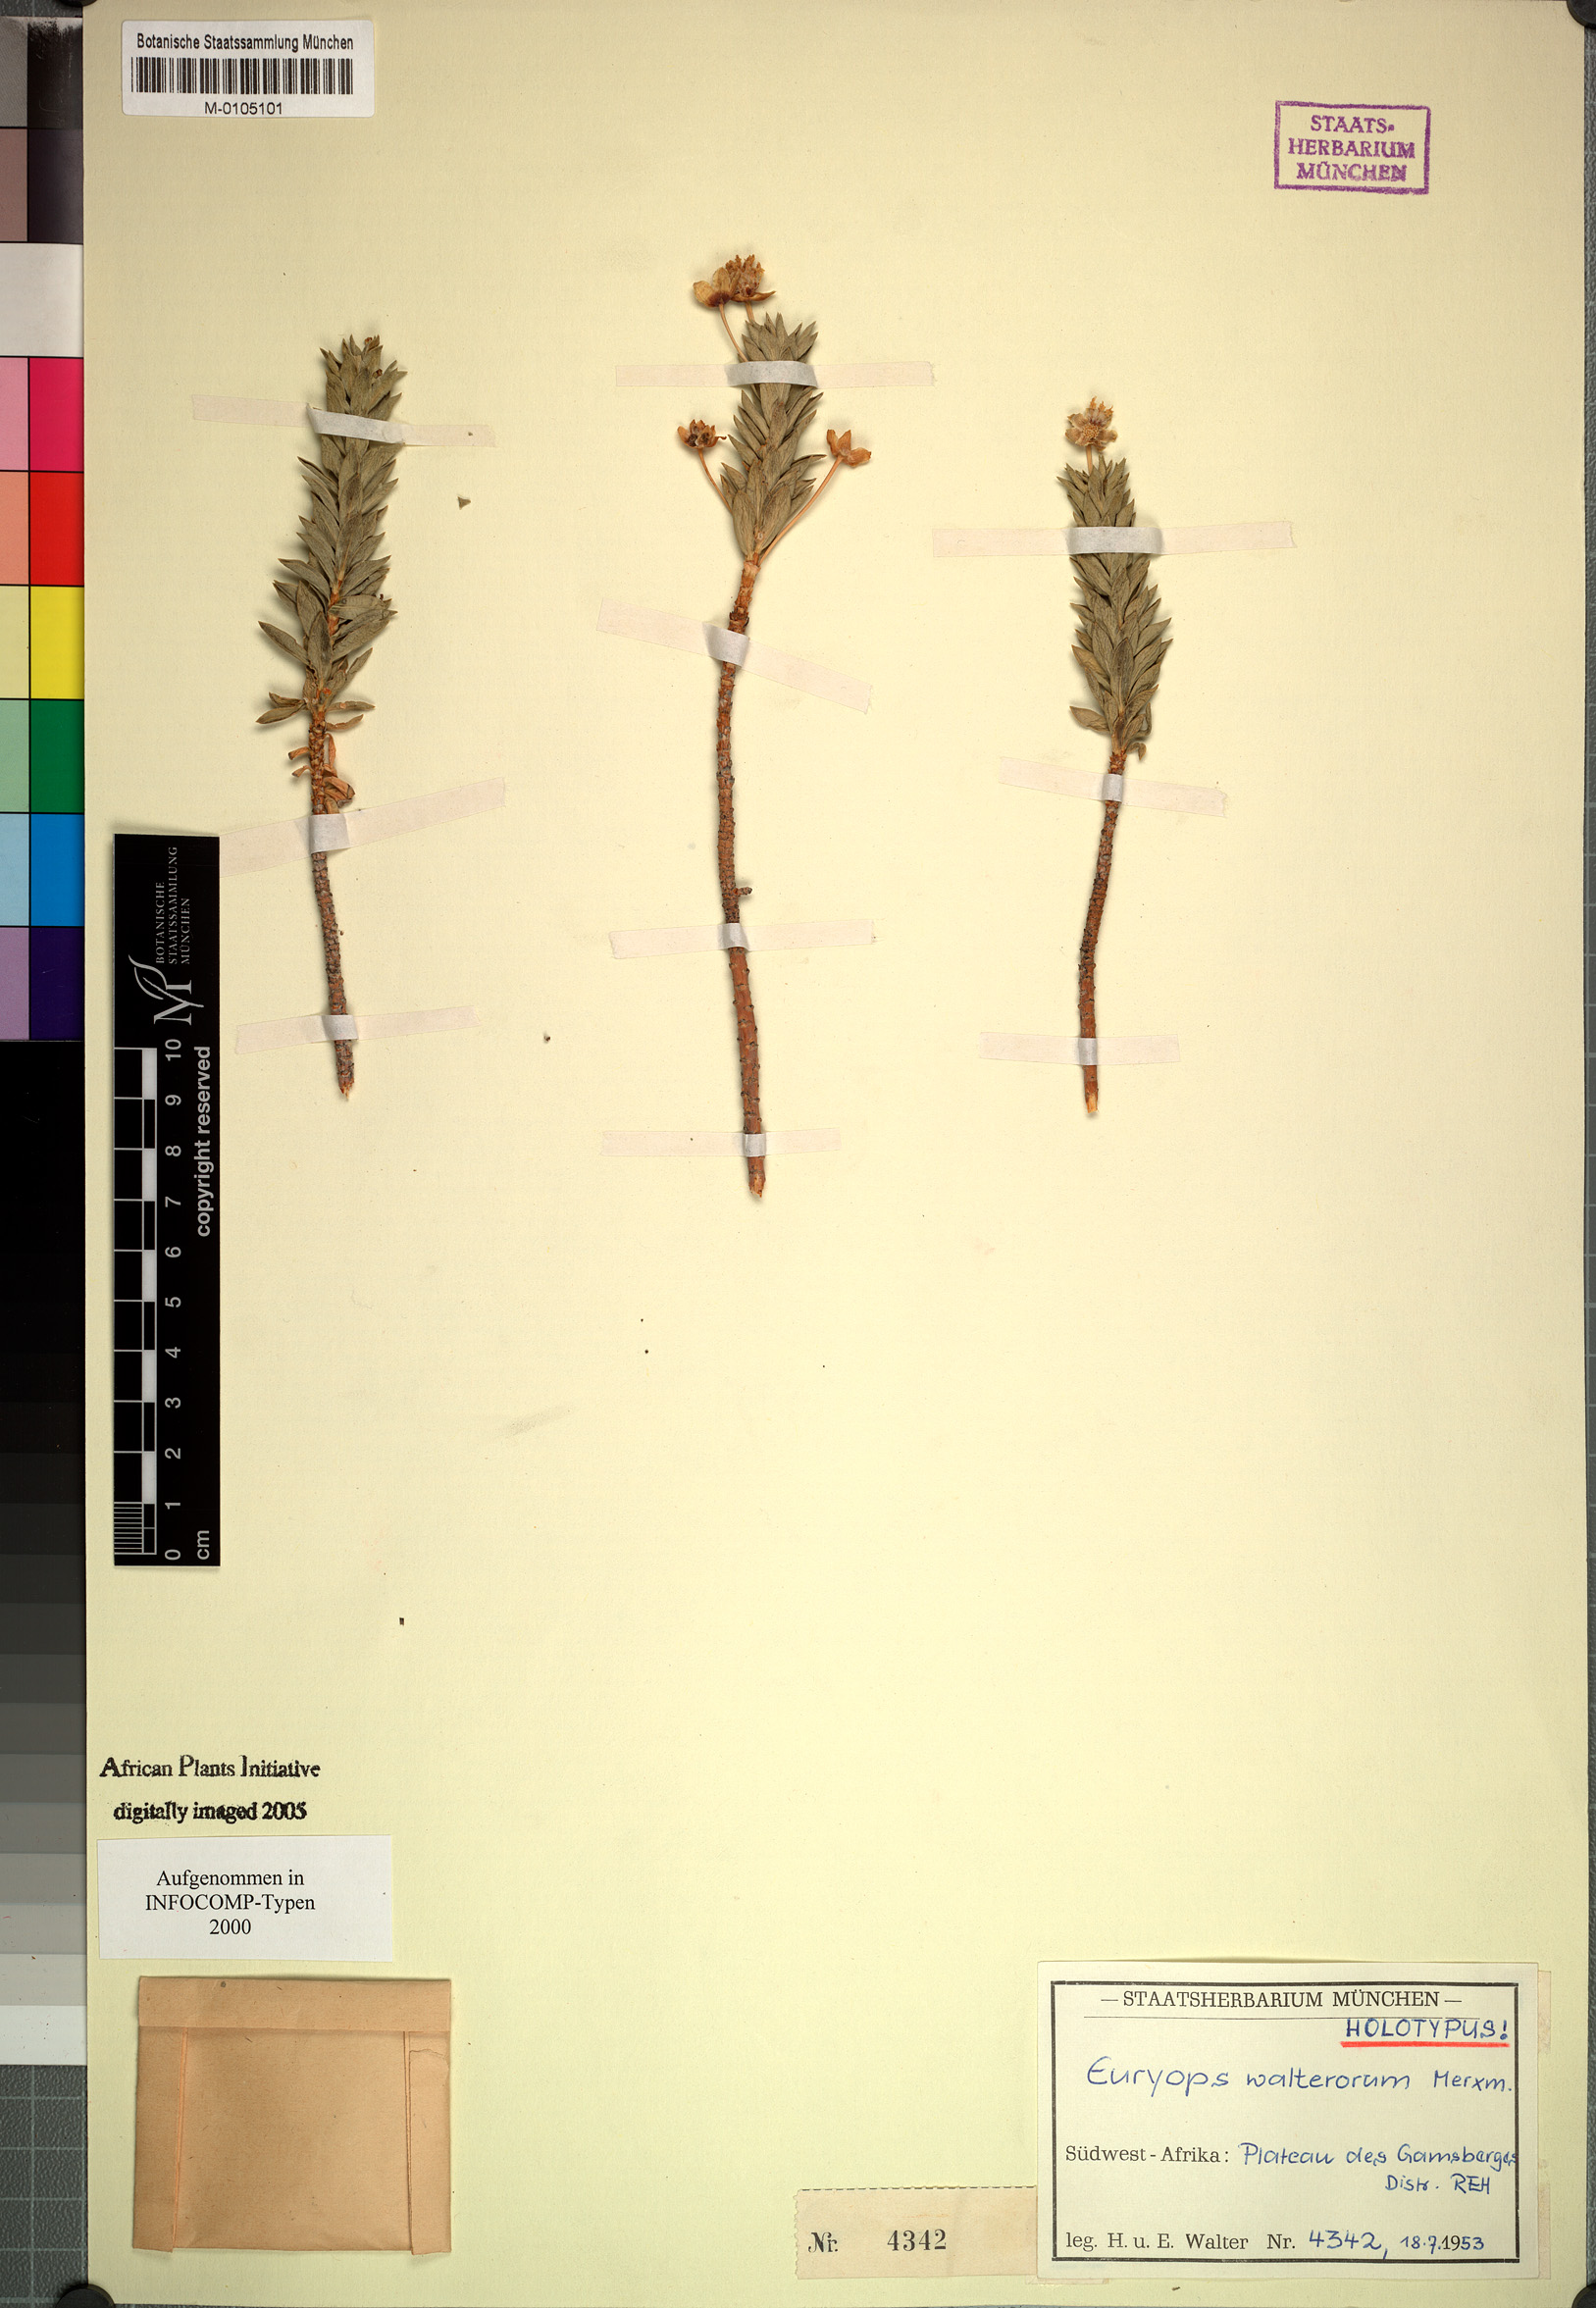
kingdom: Plantae
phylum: Tracheophyta
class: Magnoliopsida
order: Asterales
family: Asteraceae
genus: Euryops
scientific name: Euryops walterorum
